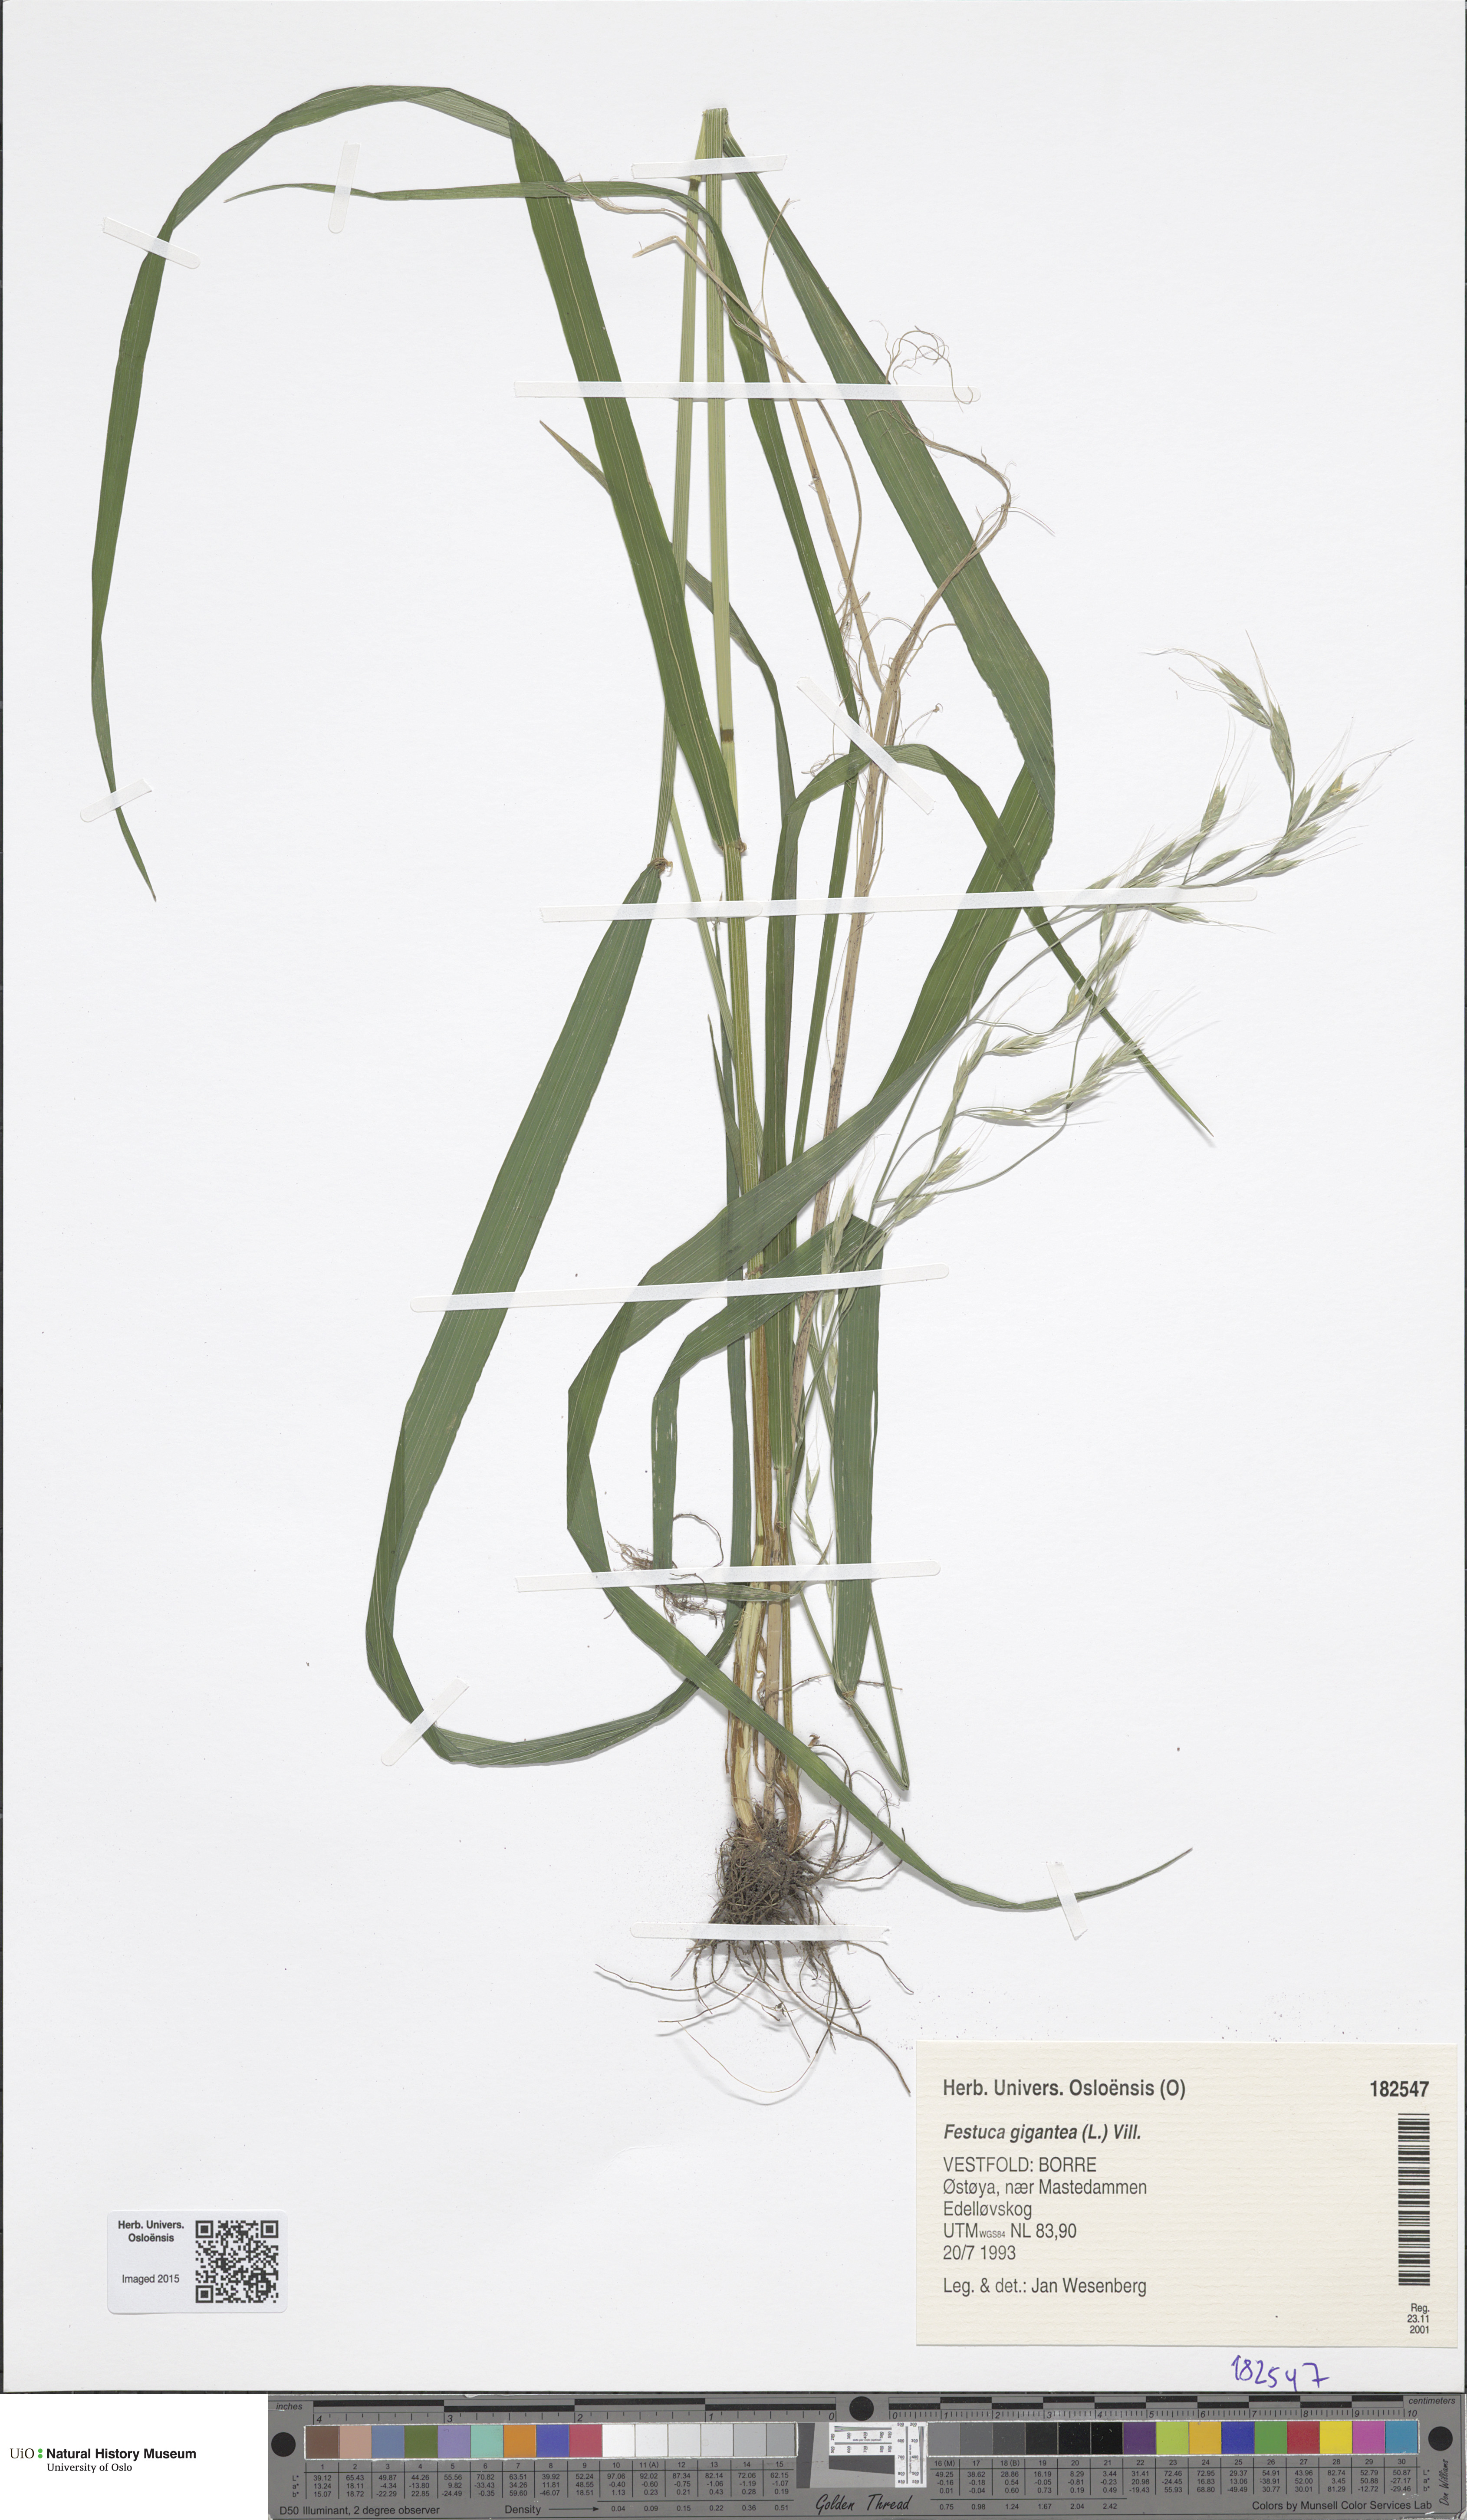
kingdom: Plantae
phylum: Tracheophyta
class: Liliopsida
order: Poales
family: Poaceae
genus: Lolium
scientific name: Lolium giganteum
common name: Giant fescue
